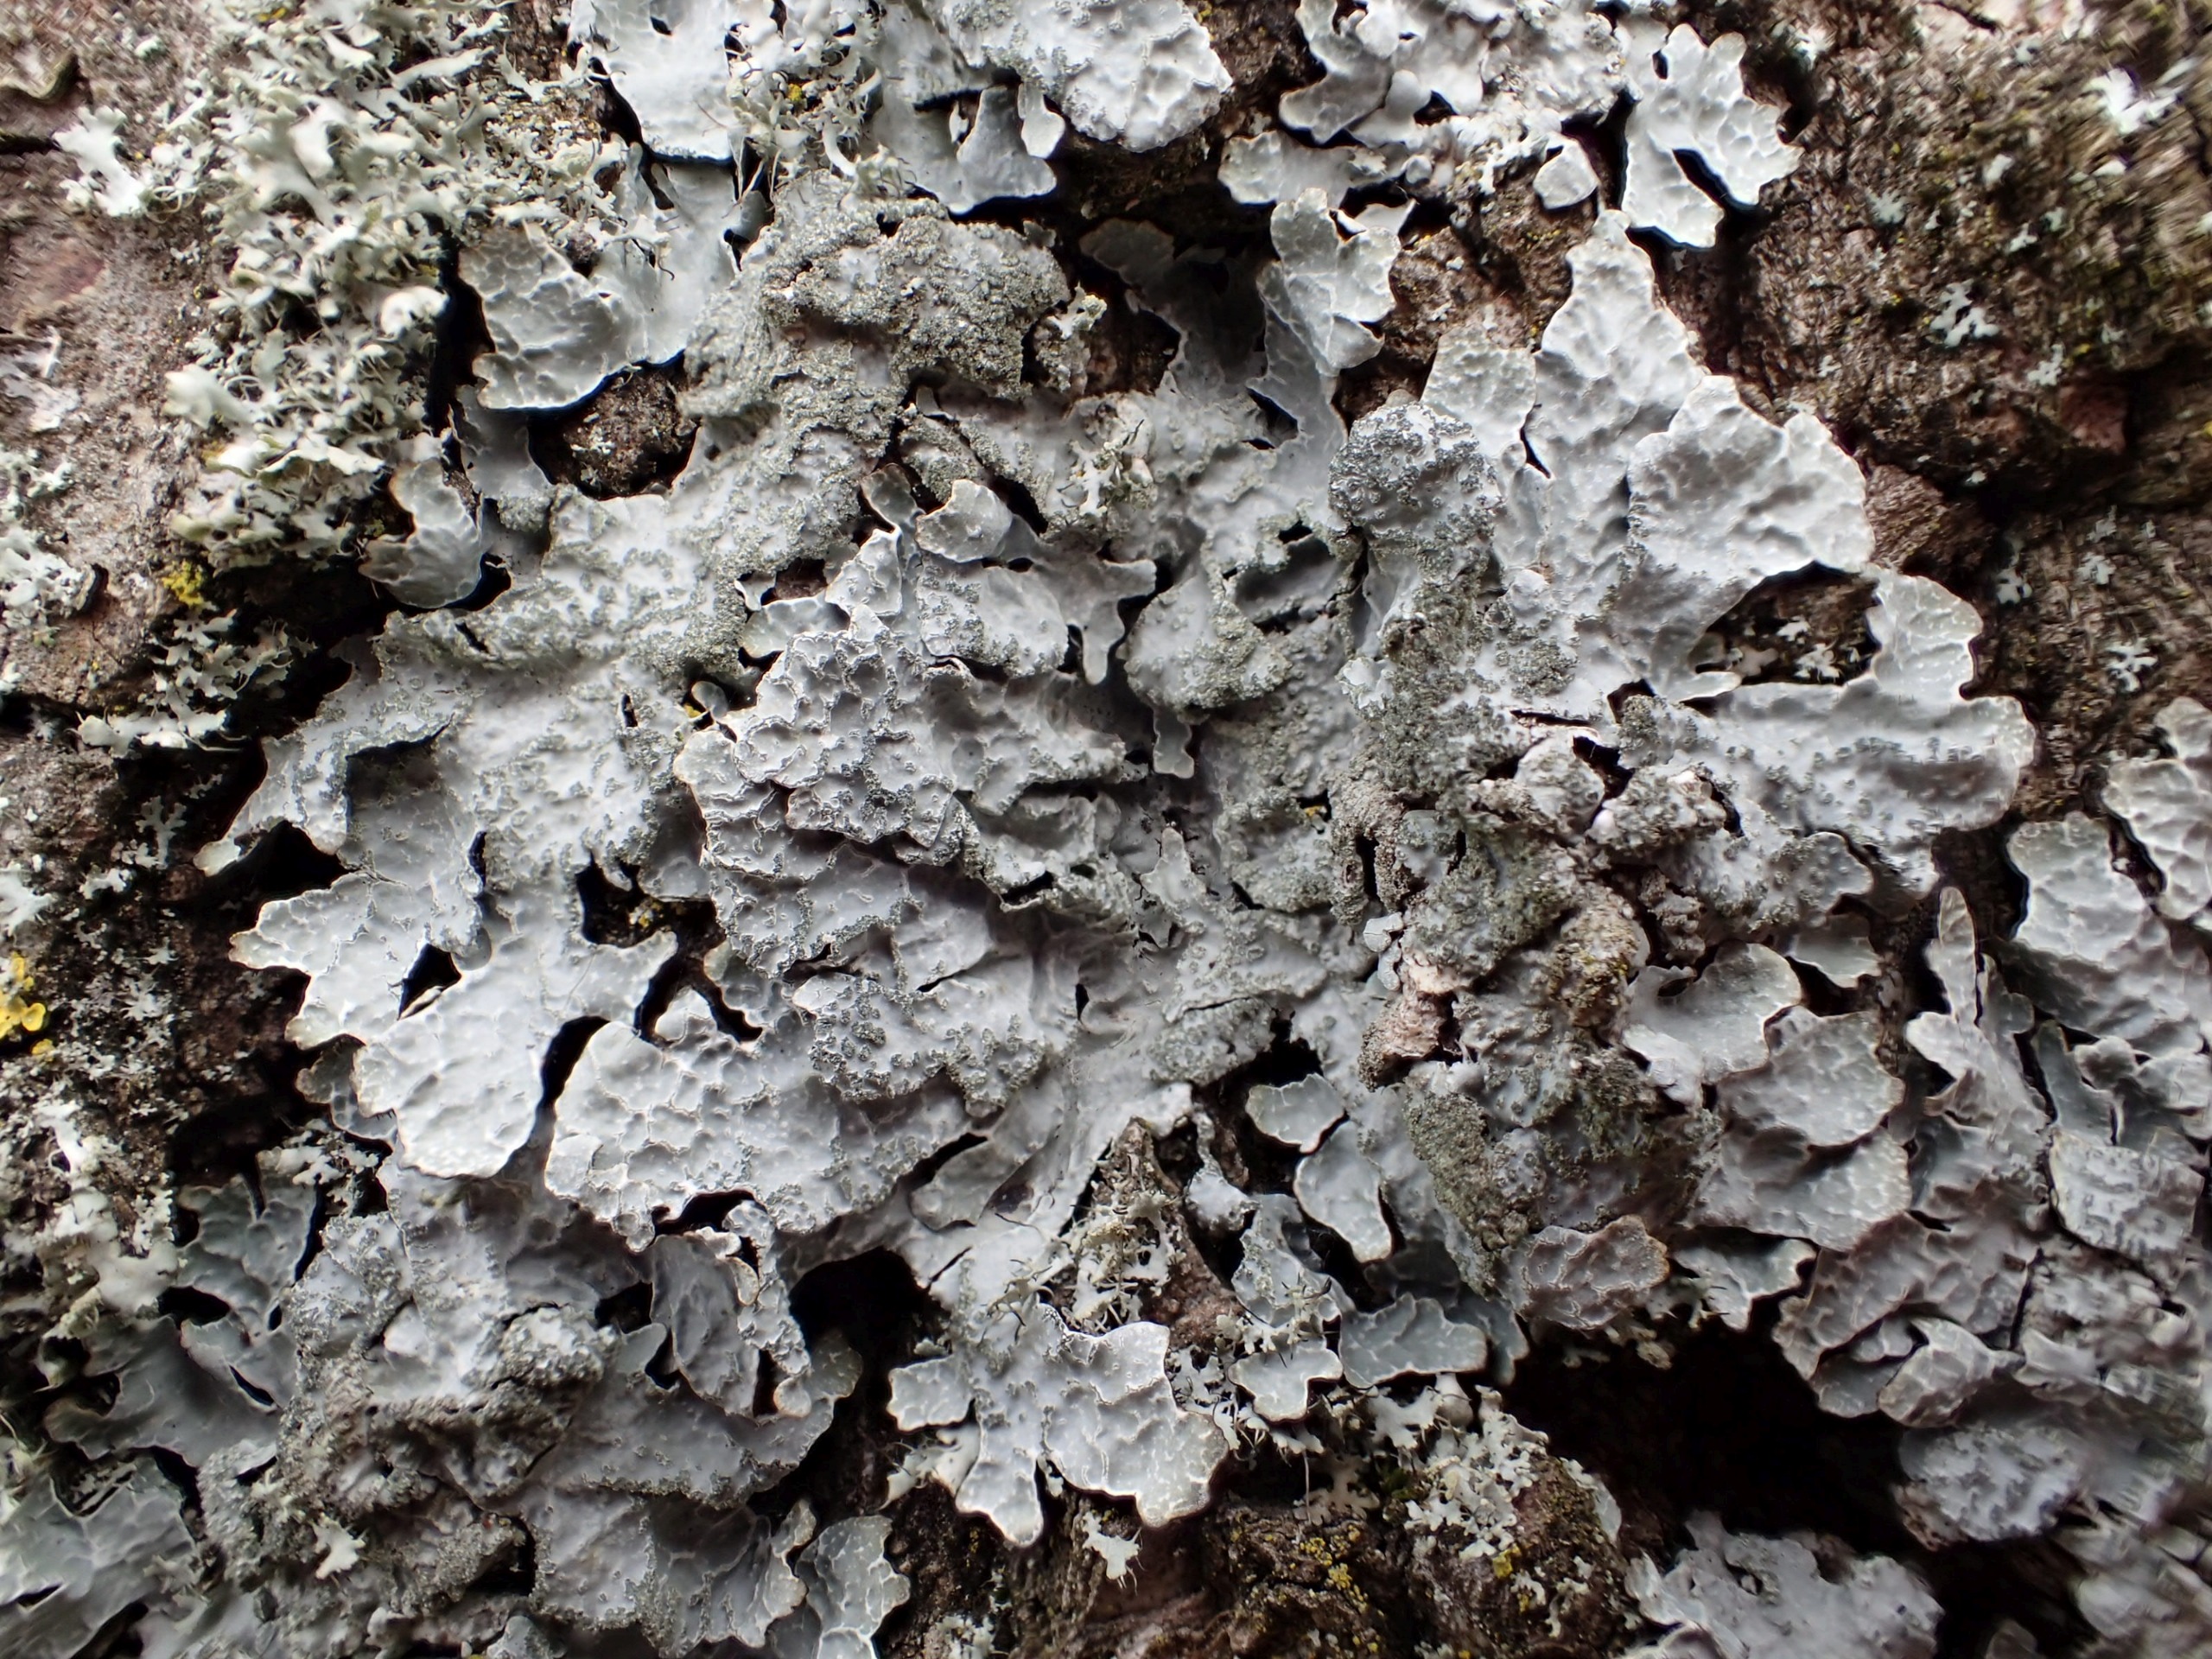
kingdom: Fungi
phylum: Ascomycota
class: Lecanoromycetes
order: Lecanorales
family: Parmeliaceae
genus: Parmelia
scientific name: Parmelia sulcata
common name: Rynket skållav
